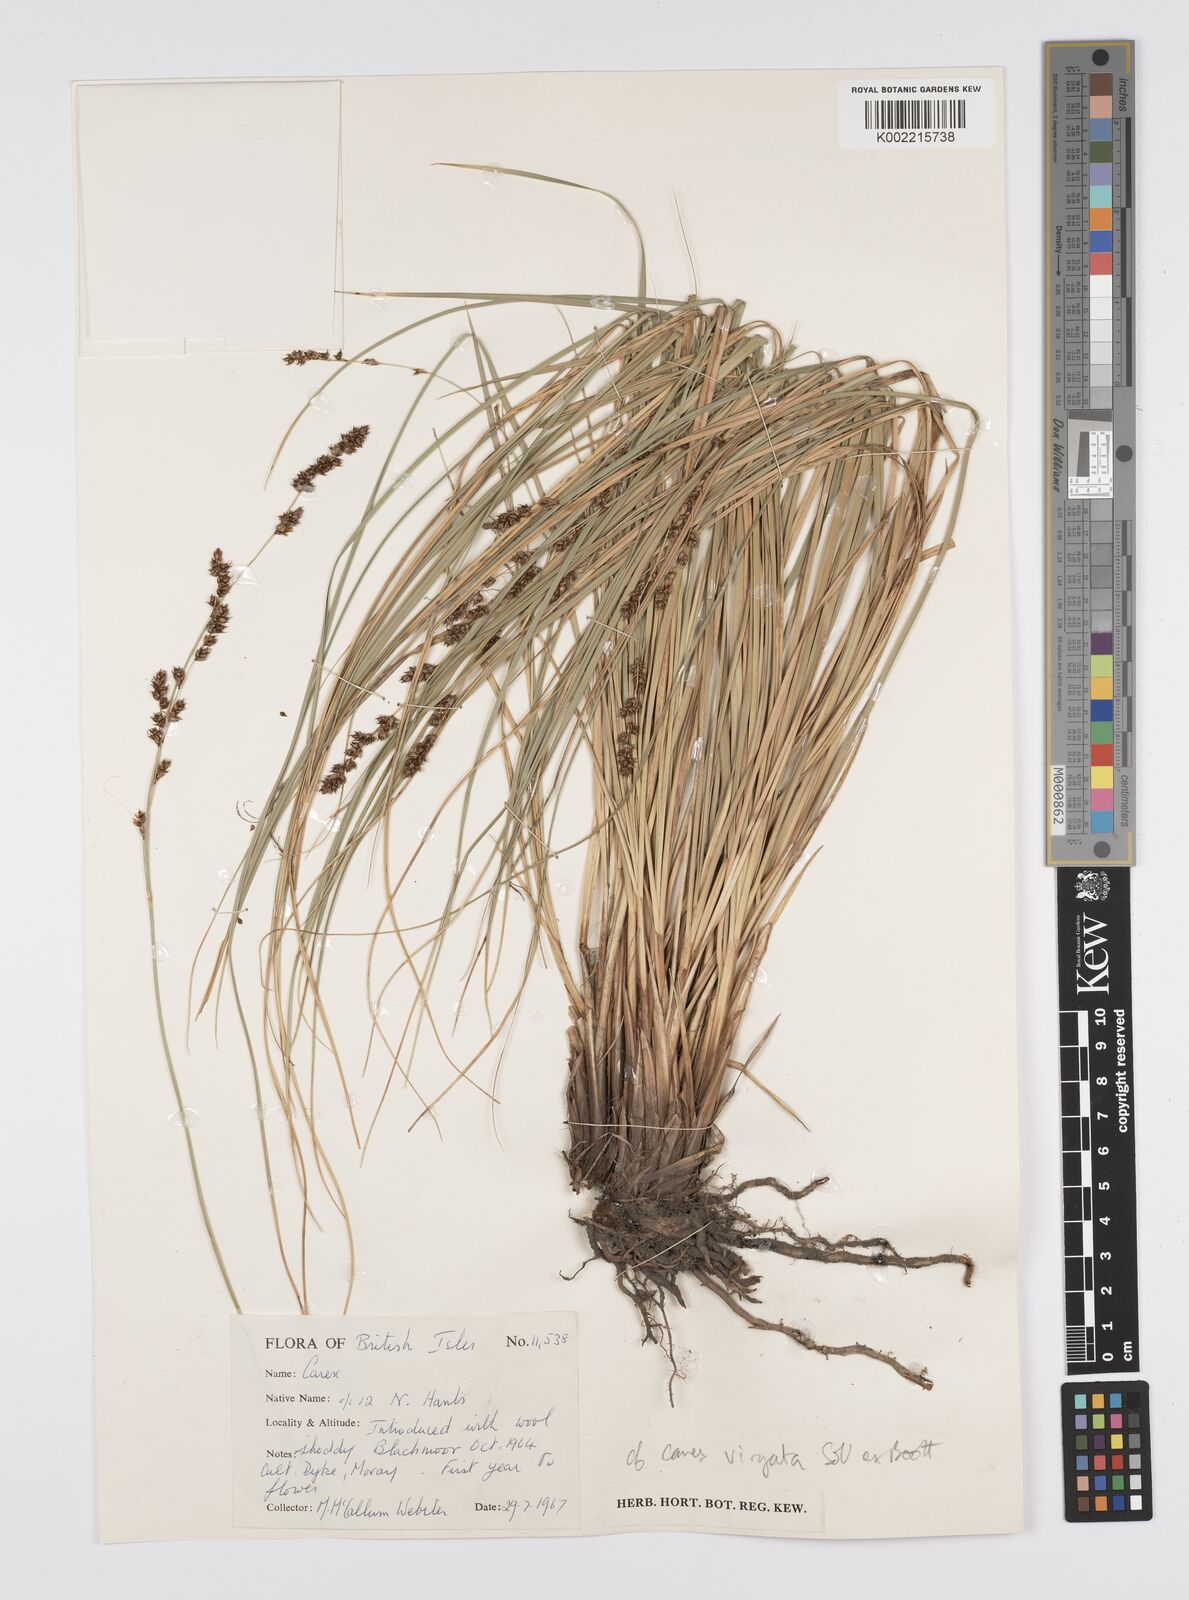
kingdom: Plantae
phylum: Tracheophyta
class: Liliopsida
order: Poales
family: Cyperaceae
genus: Carex
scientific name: Carex
